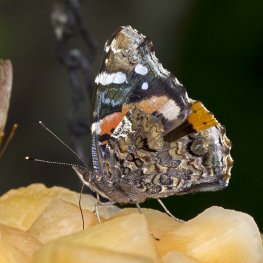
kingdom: Animalia
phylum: Arthropoda
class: Insecta
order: Lepidoptera
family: Nymphalidae
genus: Vanessa
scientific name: Vanessa atalanta
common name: Red Admiral
